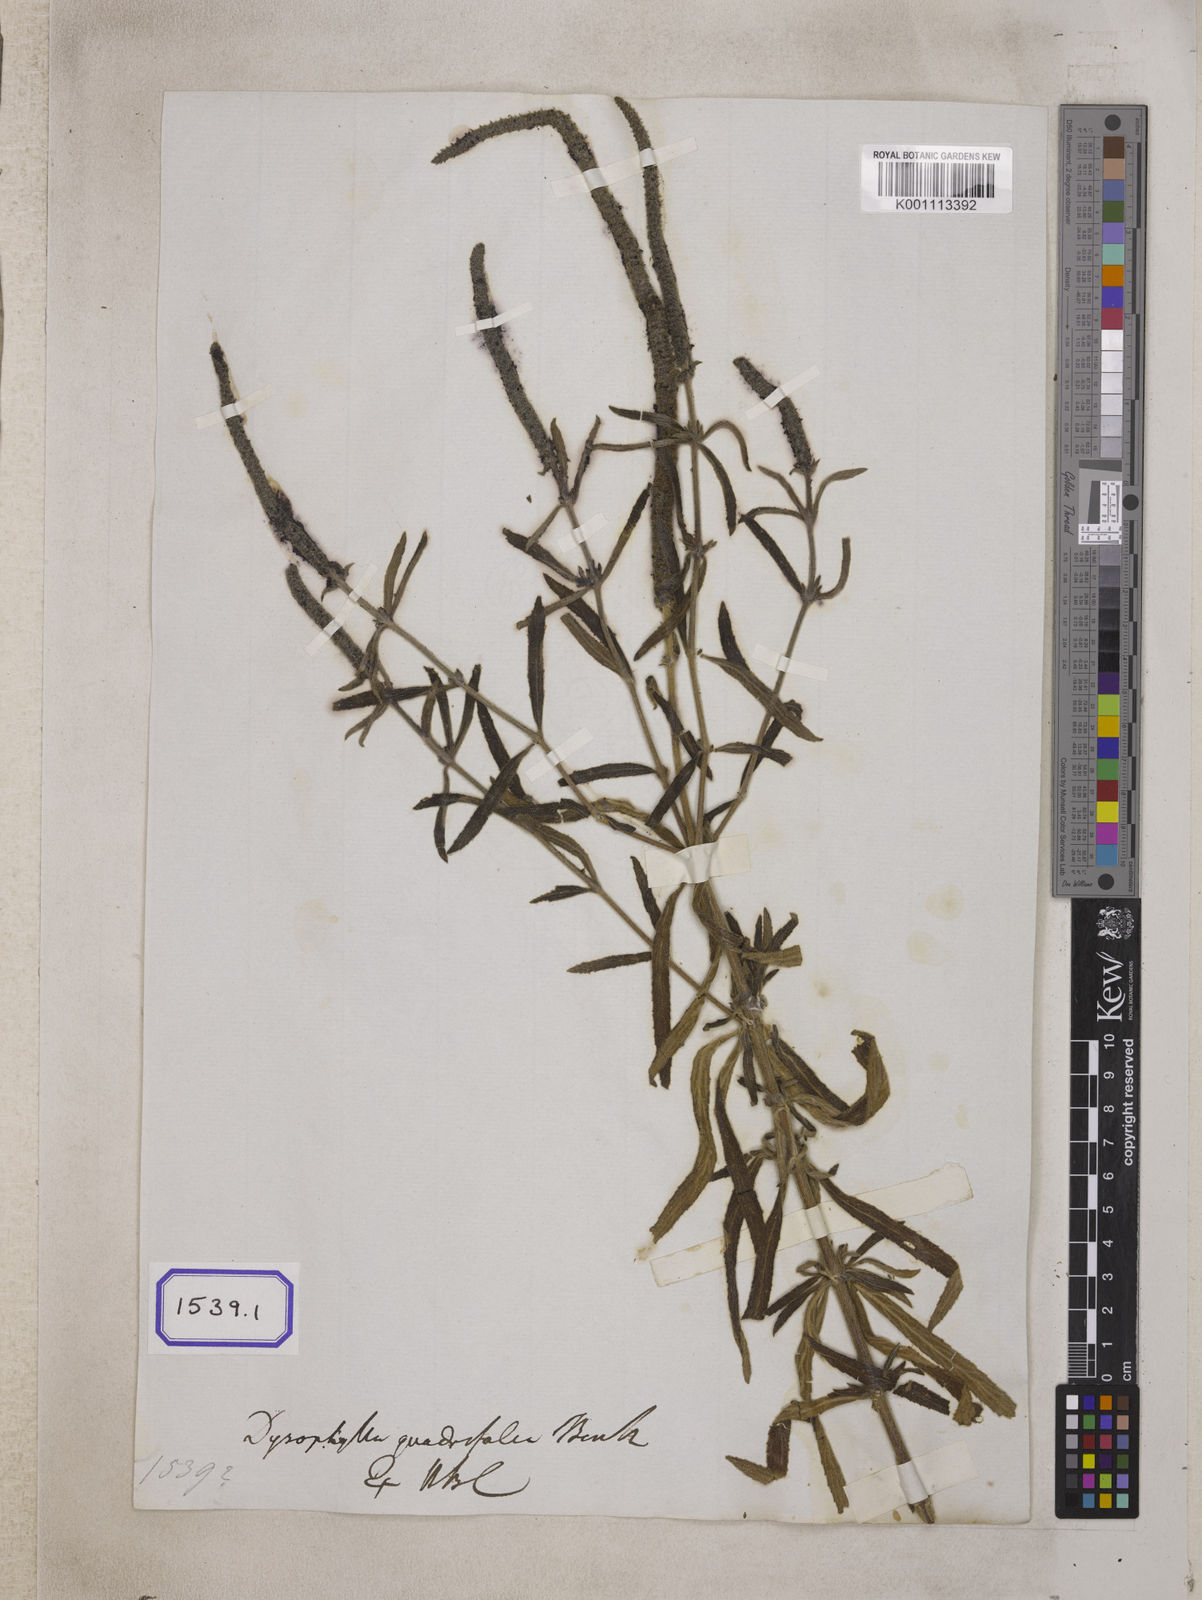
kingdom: Plantae
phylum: Tracheophyta
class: Magnoliopsida
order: Lamiales
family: Lamiaceae
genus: Pogostemon
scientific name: Pogostemon quadrifolius
